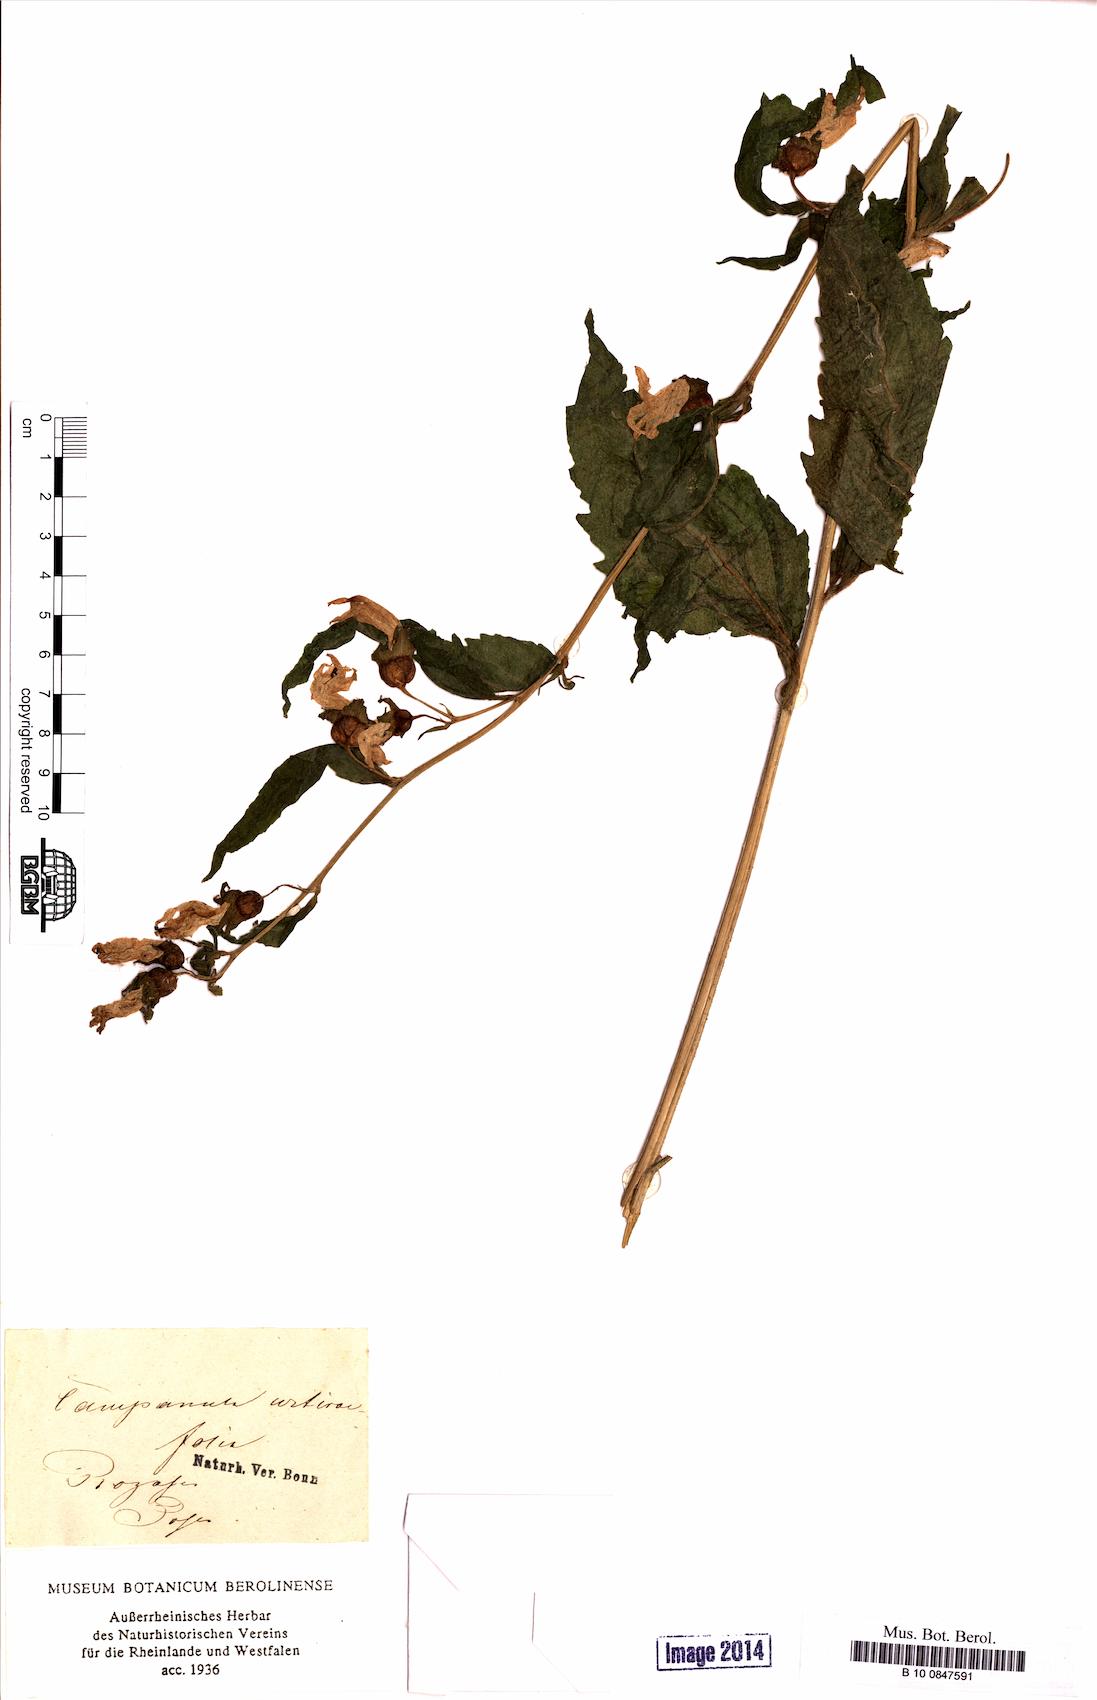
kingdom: Plantae
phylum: Tracheophyta
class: Magnoliopsida
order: Asterales
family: Campanulaceae
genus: Campanula
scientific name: Campanula trachelium
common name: Nettle-leaved bellflower
